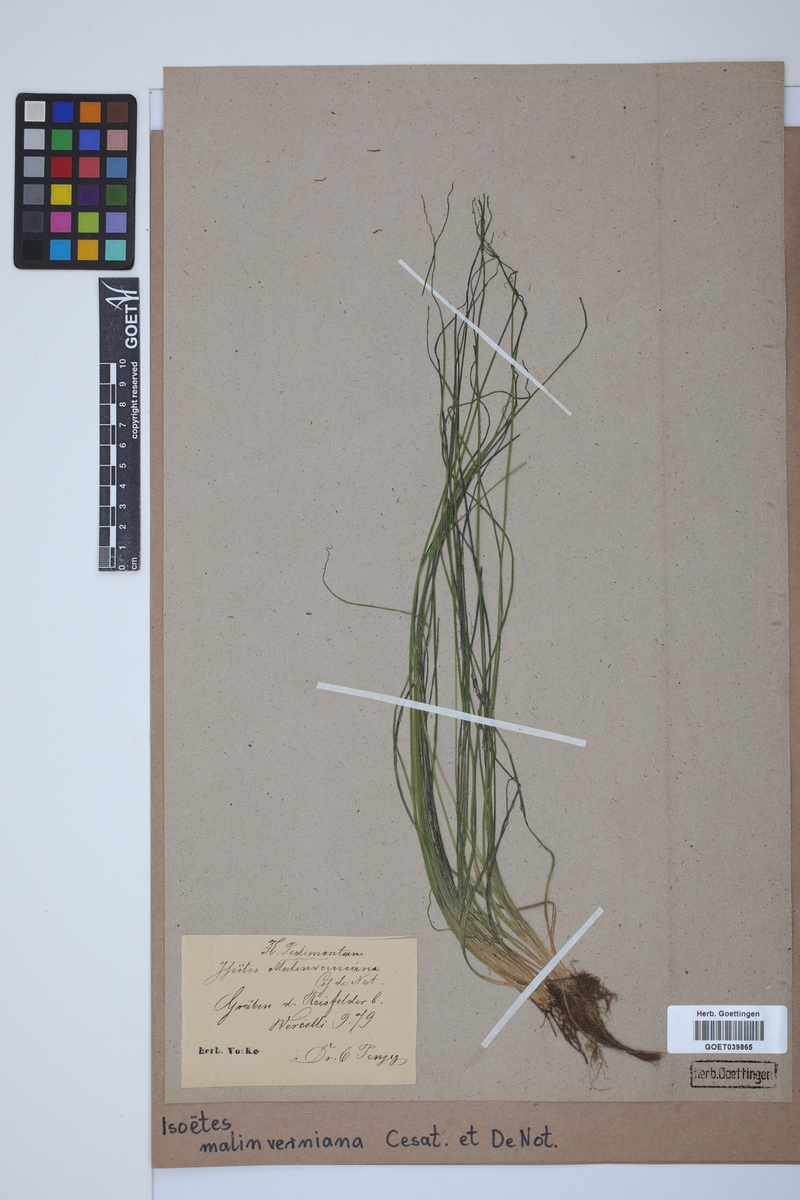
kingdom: Plantae
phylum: Tracheophyta
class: Lycopodiopsida
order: Isoetales
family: Isoetaceae
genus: Isoetes
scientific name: Isoetes malinverniana
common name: Piedmont quillwort
